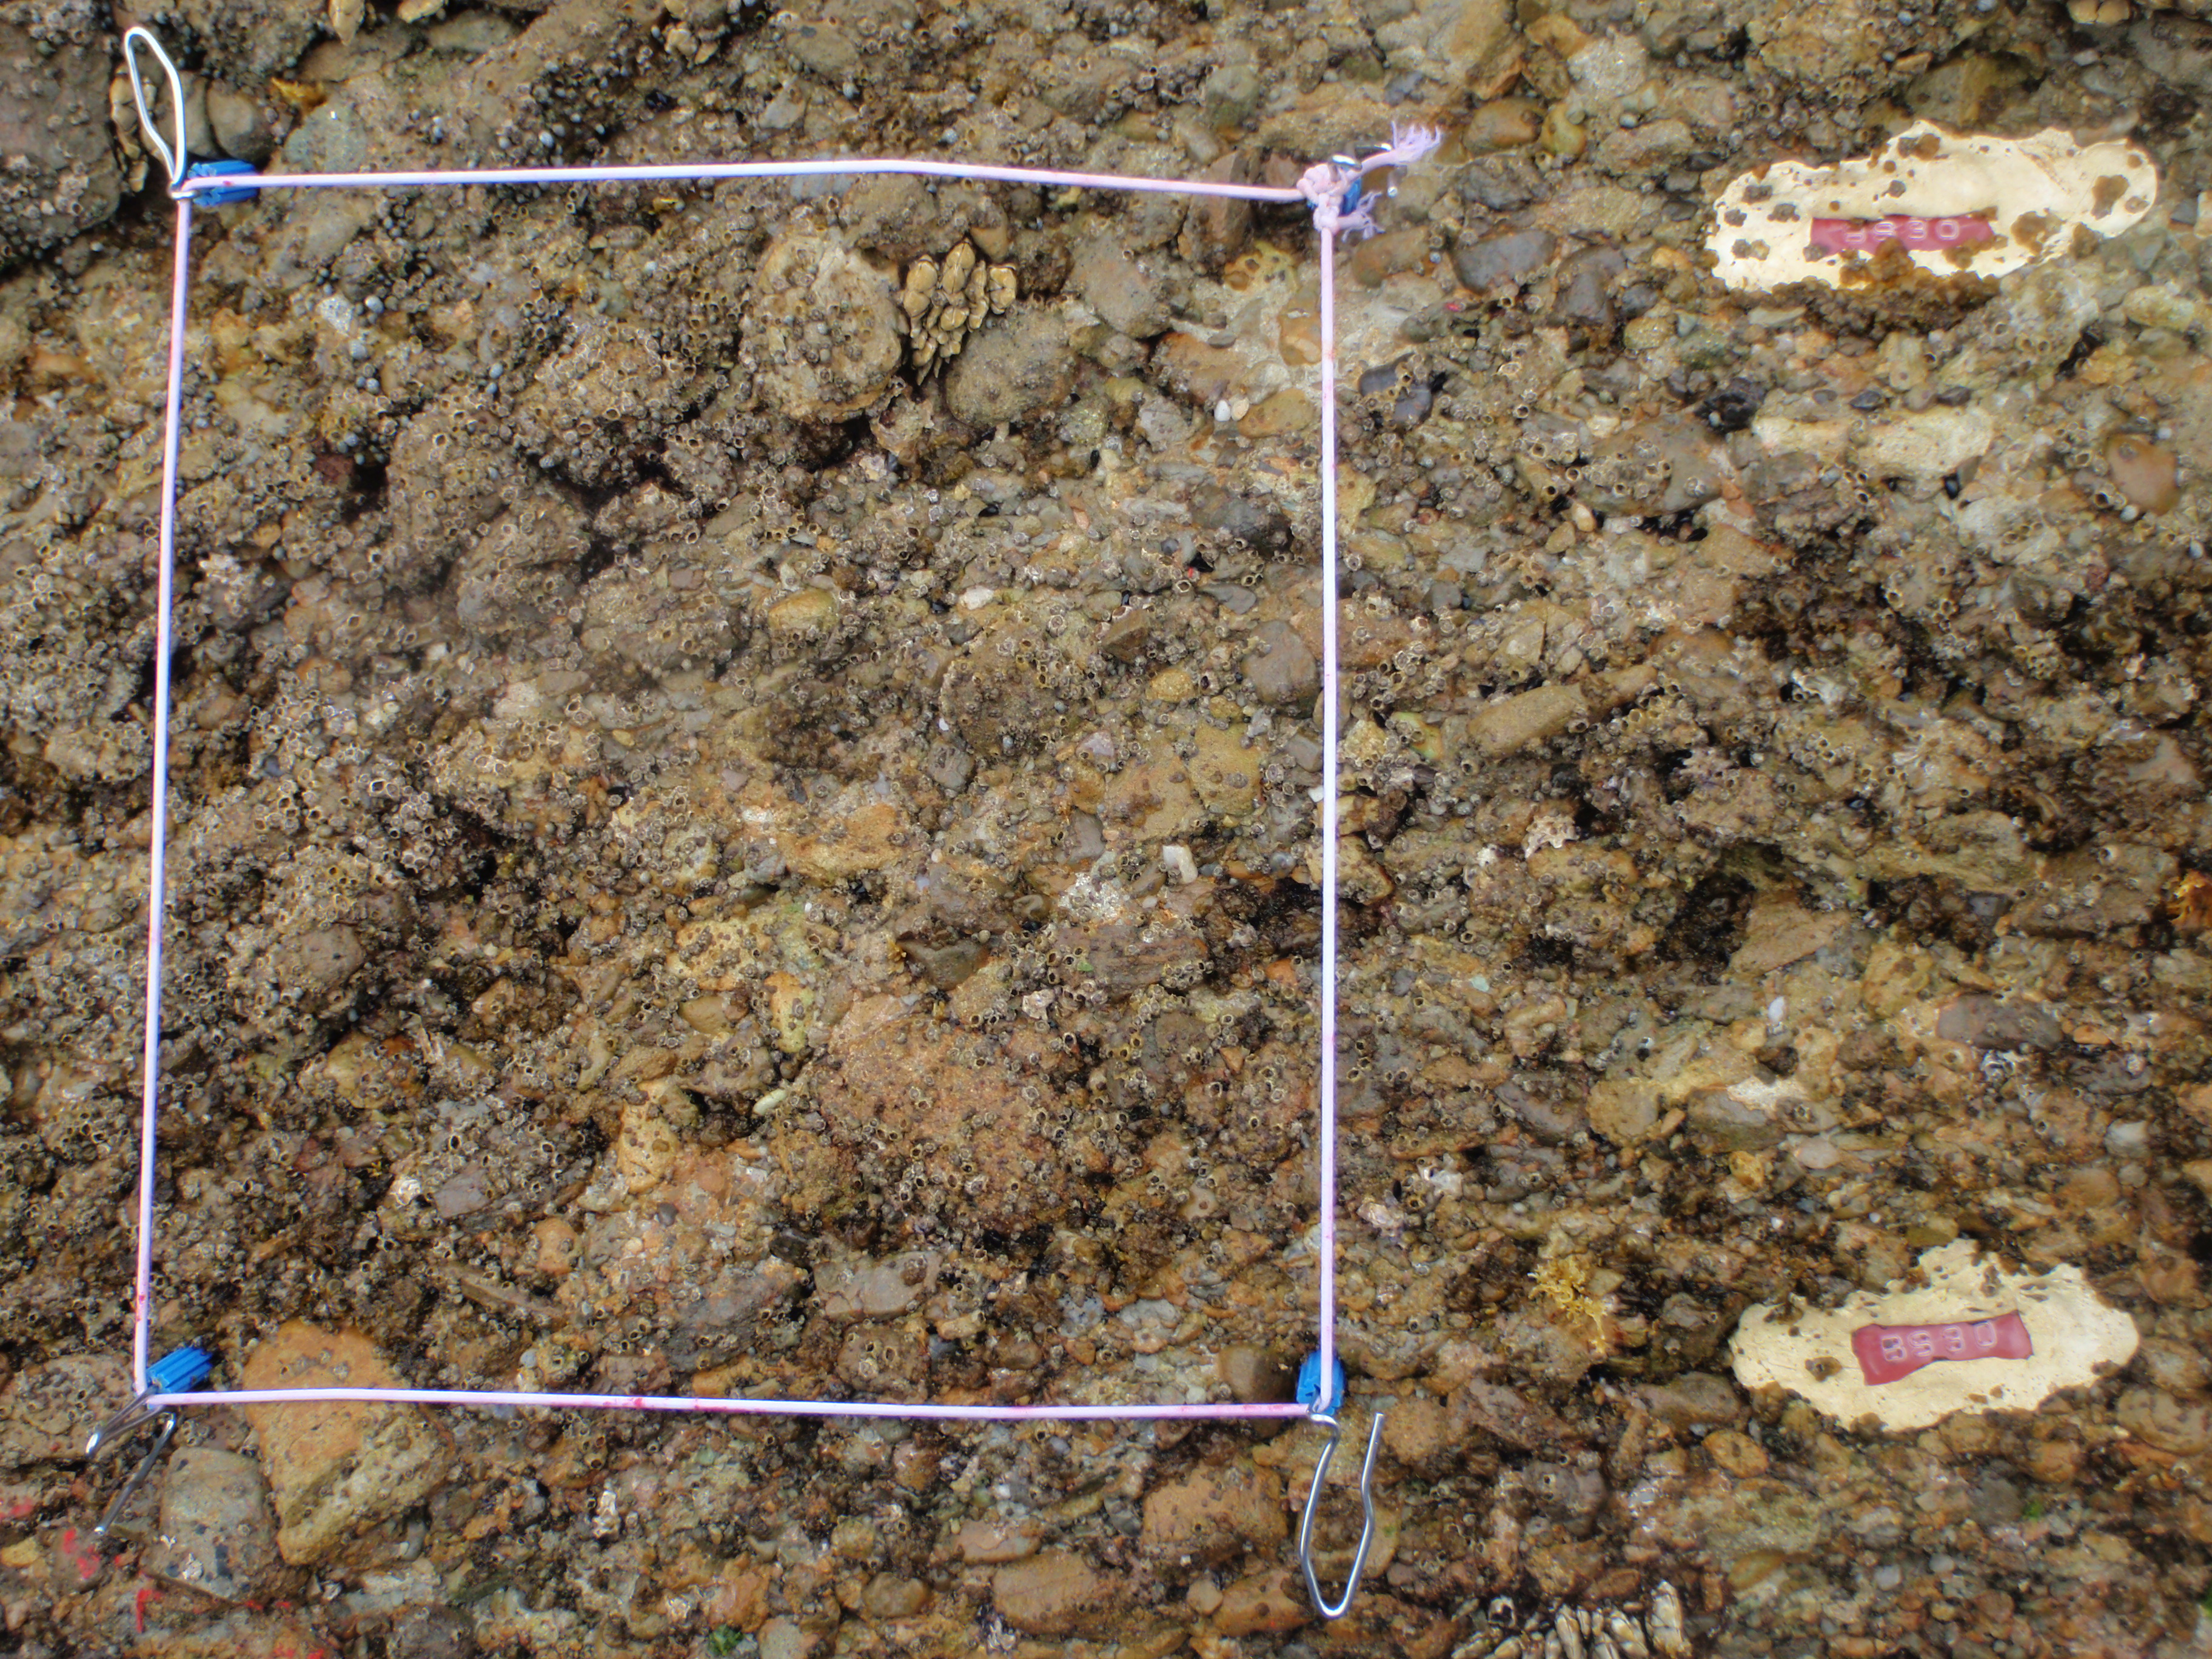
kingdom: Animalia
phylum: Arthropoda
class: Maxillopoda
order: Pedunculata
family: Pollicipedidae
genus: Capitulum
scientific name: Capitulum mitella
